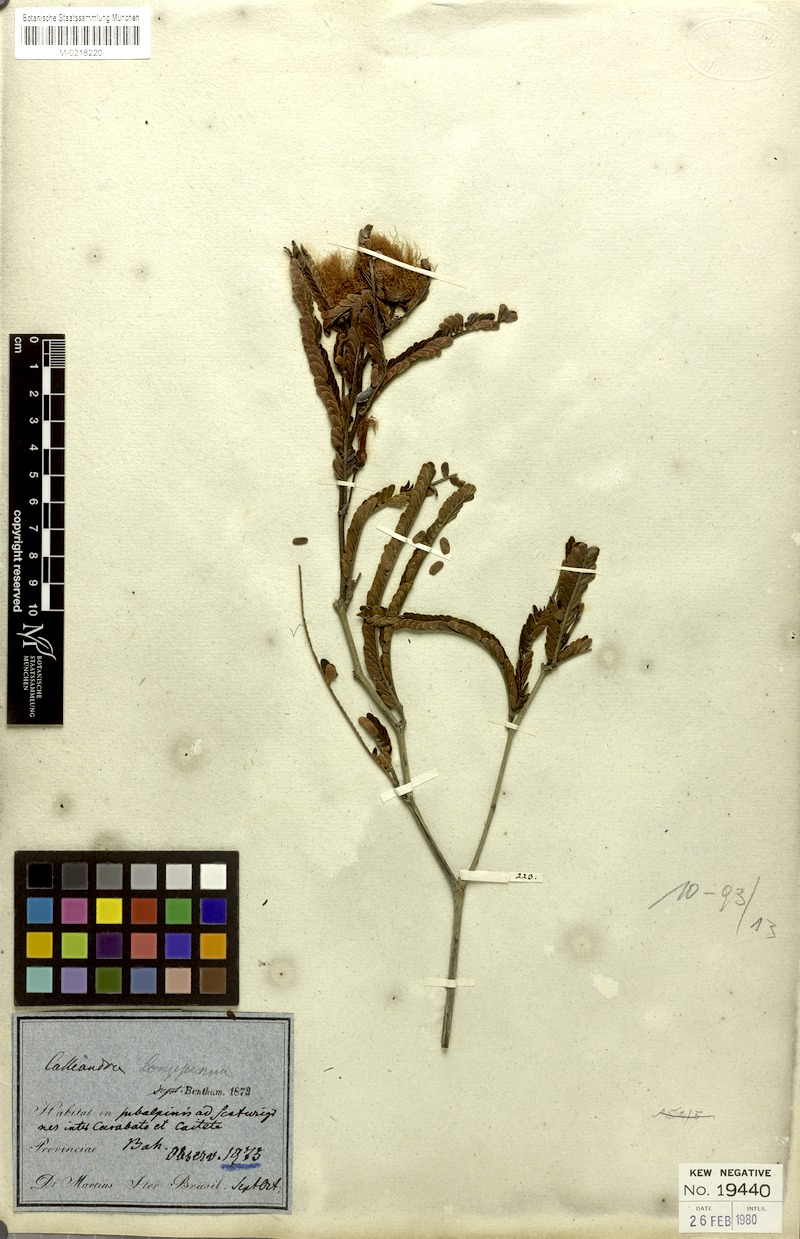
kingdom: Plantae
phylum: Tracheophyta
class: Magnoliopsida
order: Fabales
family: Fabaceae
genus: Calliandra
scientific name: Calliandra longipinna
